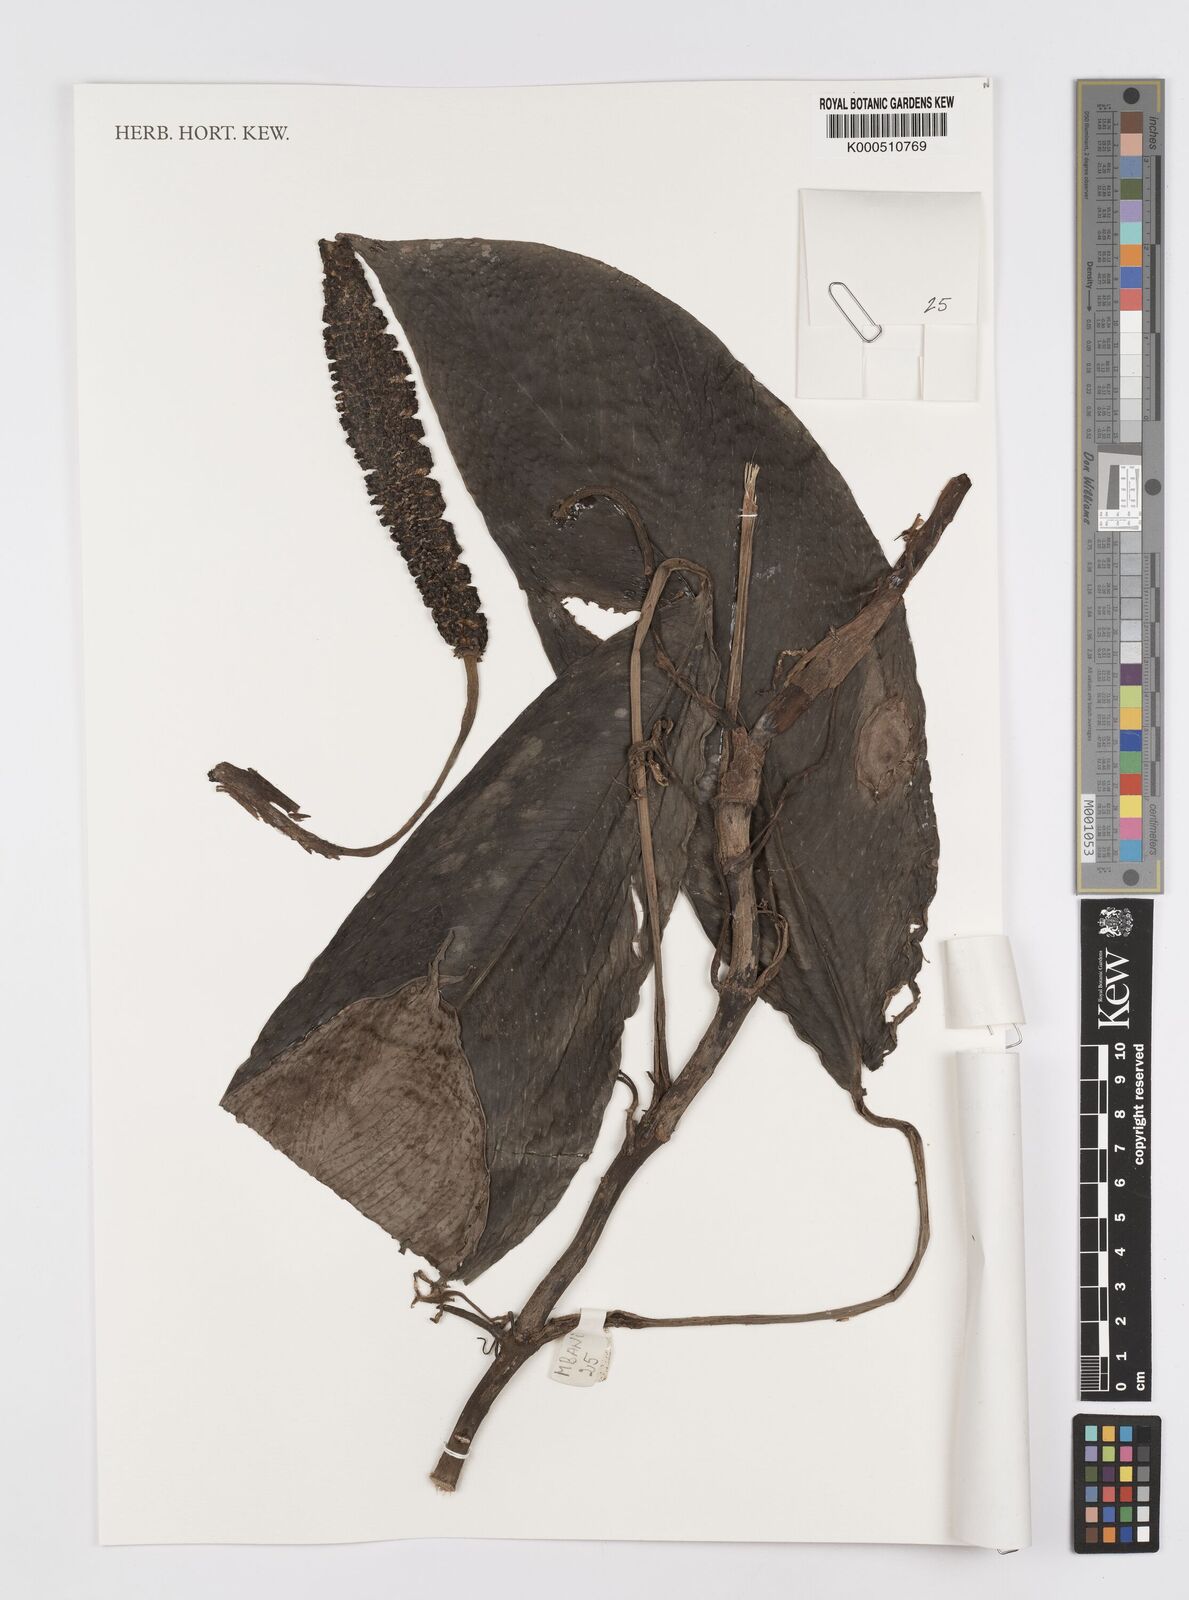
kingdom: Plantae
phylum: Tracheophyta
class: Liliopsida
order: Alismatales
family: Araceae
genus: Rhaphidophora
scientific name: Rhaphidophora africana
